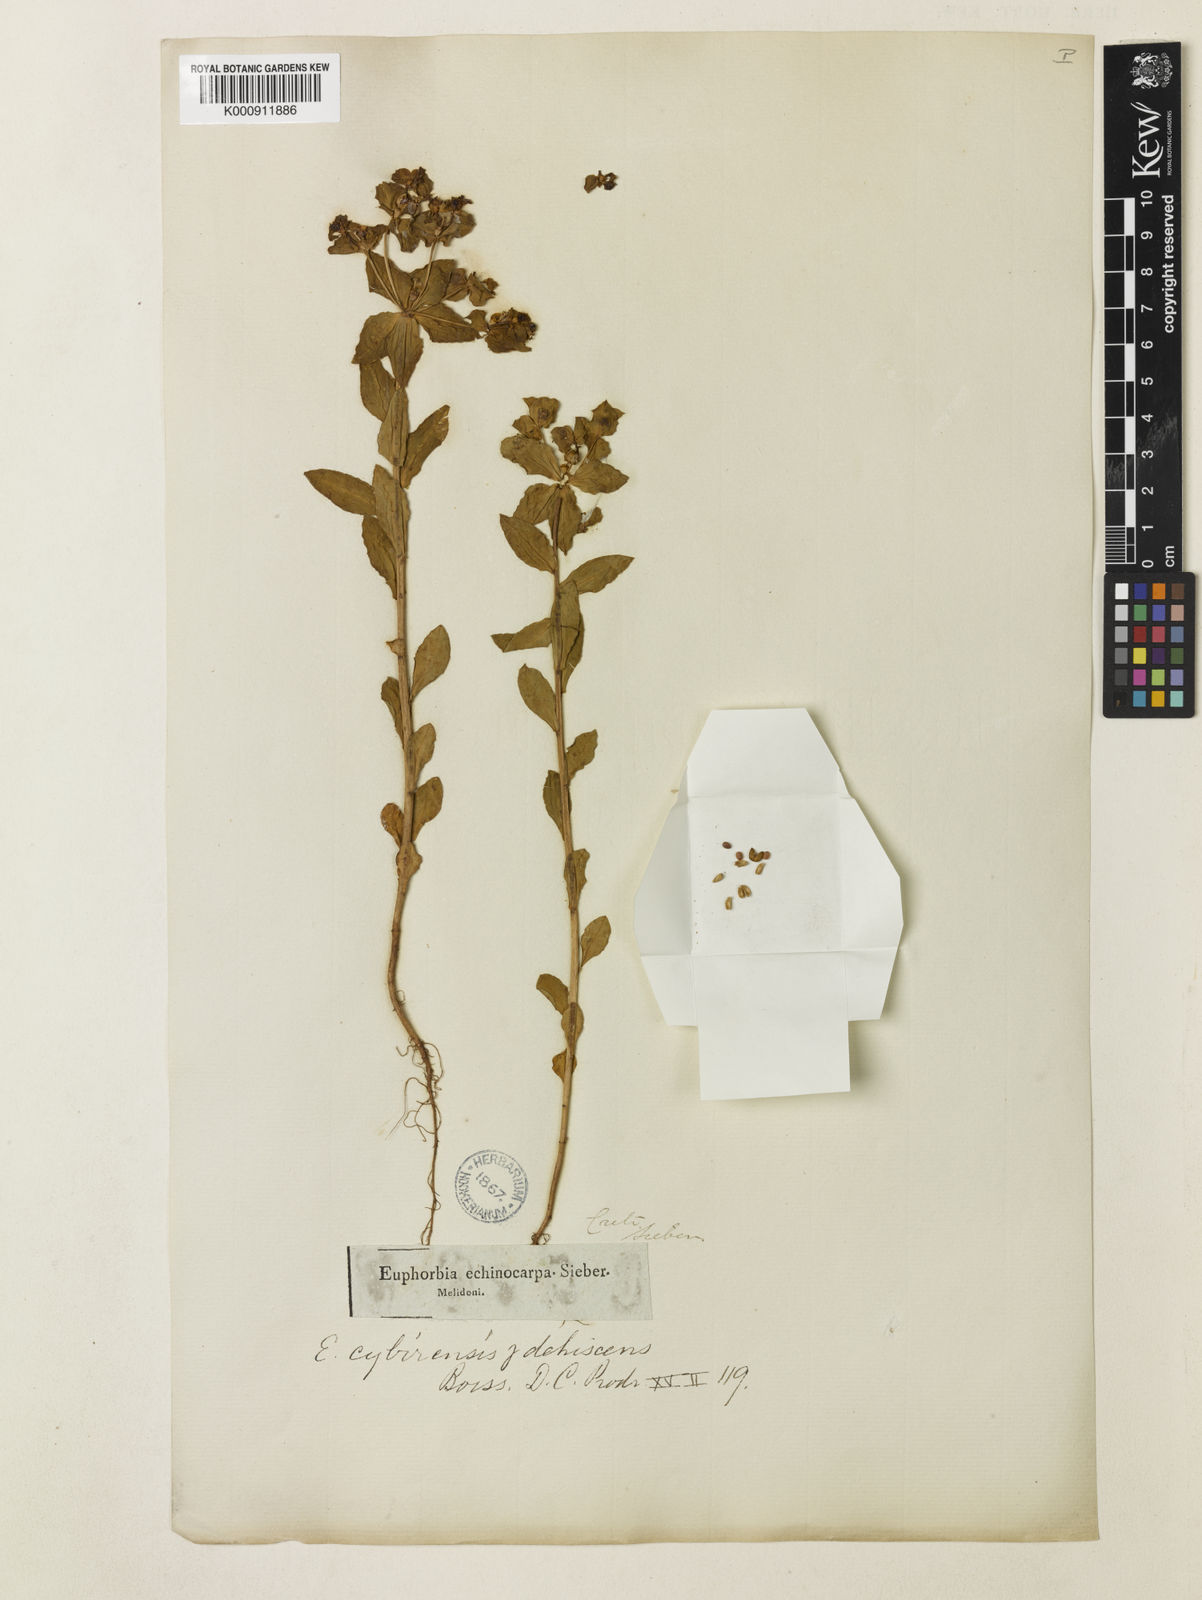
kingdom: Plantae
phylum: Tracheophyta
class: Magnoliopsida
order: Malpighiales
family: Euphorbiaceae
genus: Euphorbia
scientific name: Euphorbia valerianifolia
